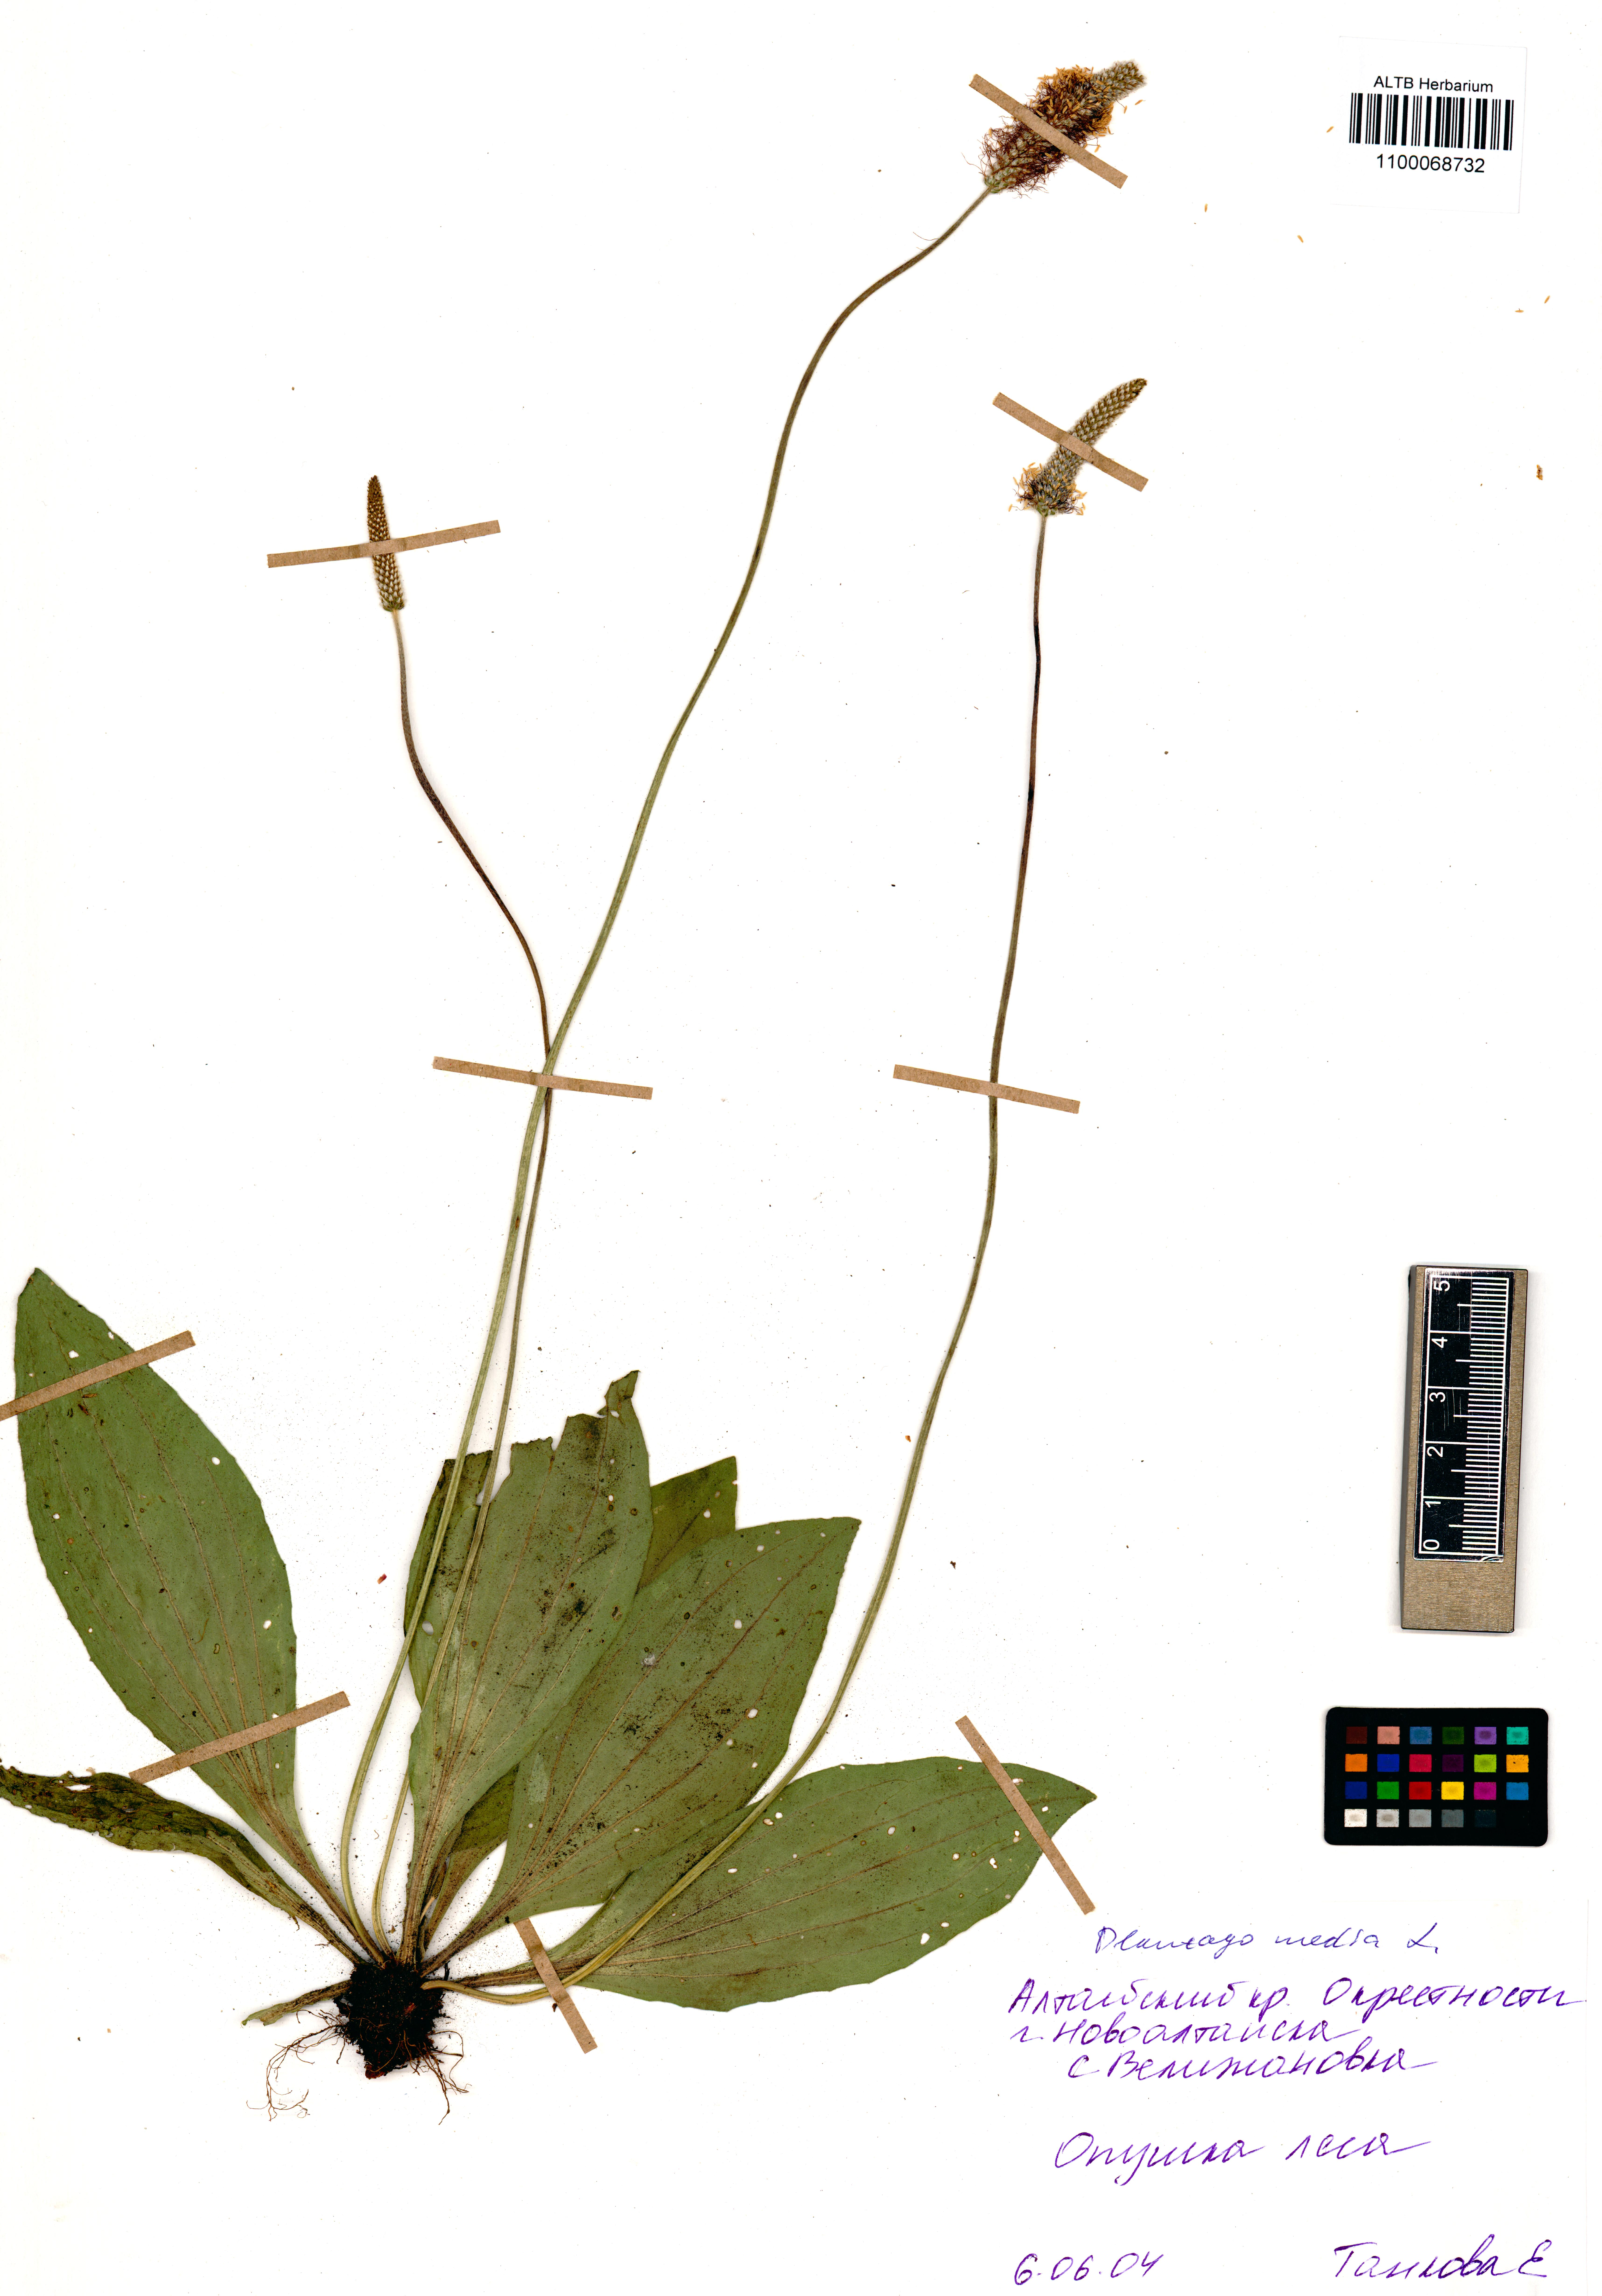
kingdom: Plantae
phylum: Tracheophyta
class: Magnoliopsida
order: Lamiales
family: Plantaginaceae
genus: Plantago
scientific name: Plantago media
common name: Hoary plantain
